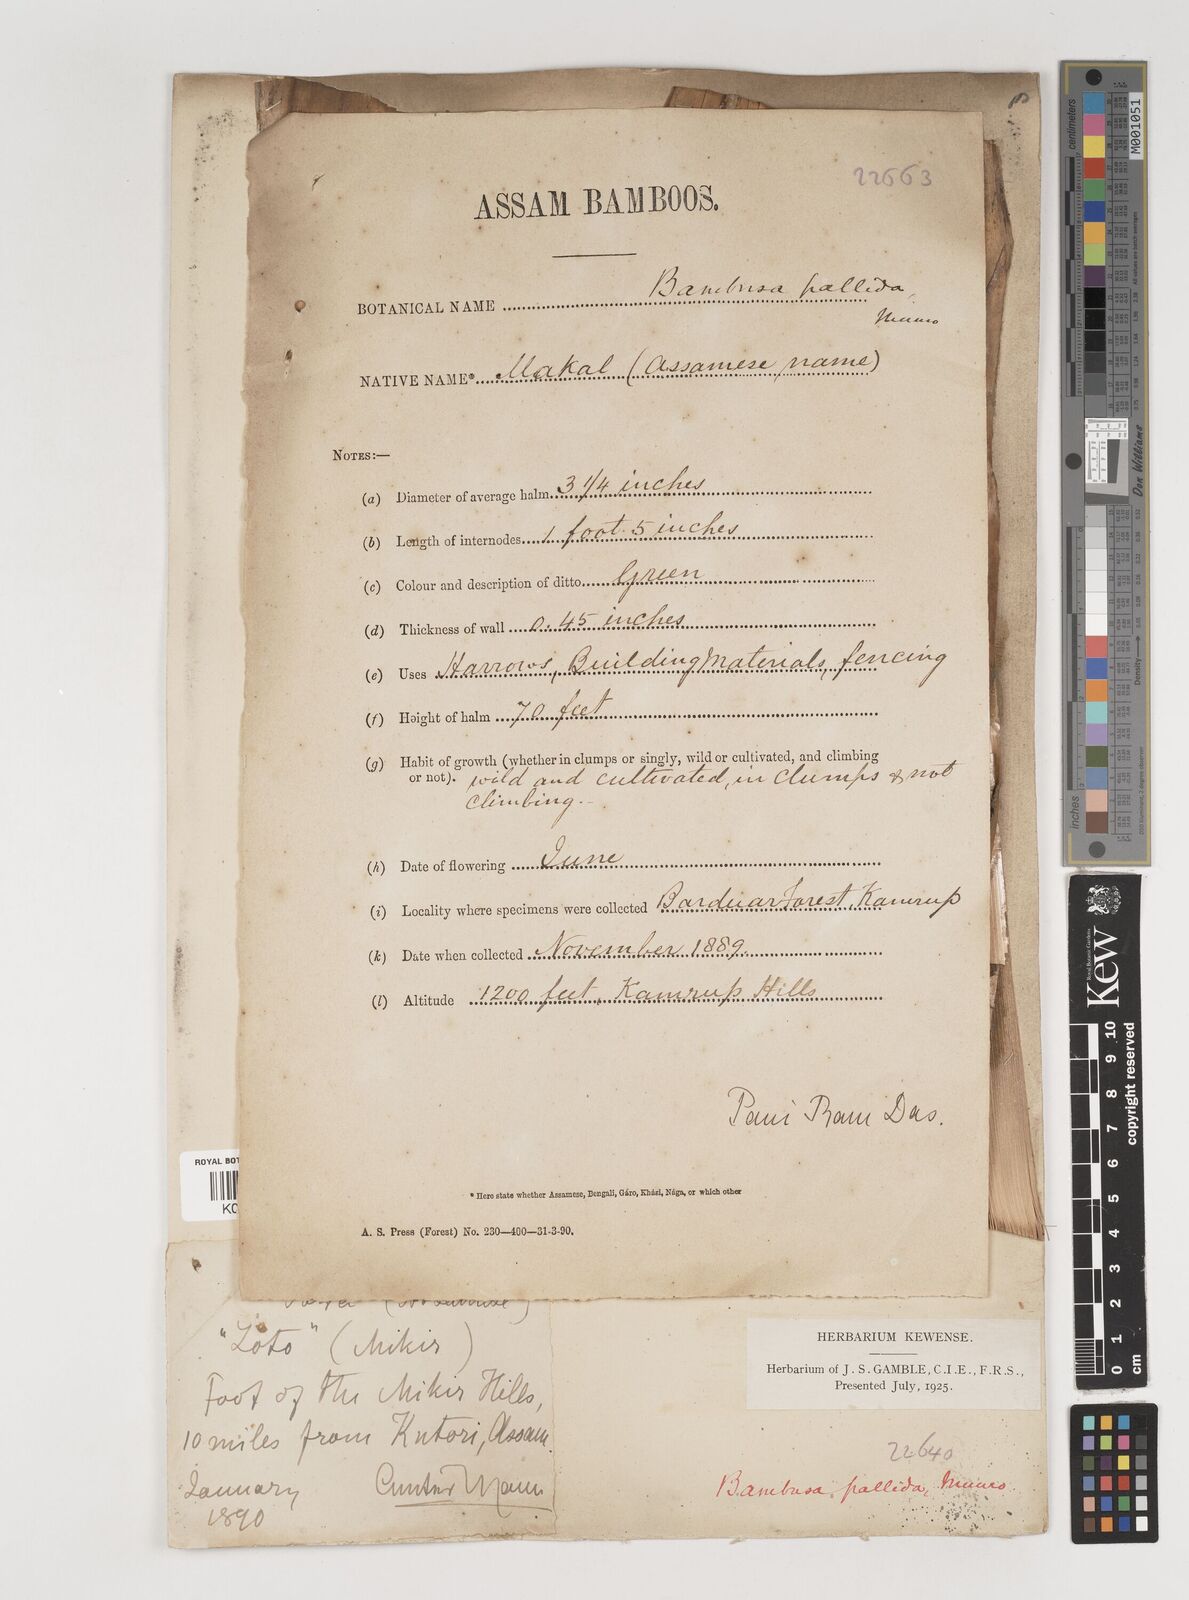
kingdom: Plantae
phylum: Tracheophyta
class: Liliopsida
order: Poales
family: Poaceae
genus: Bambusa
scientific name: Bambusa pallida
